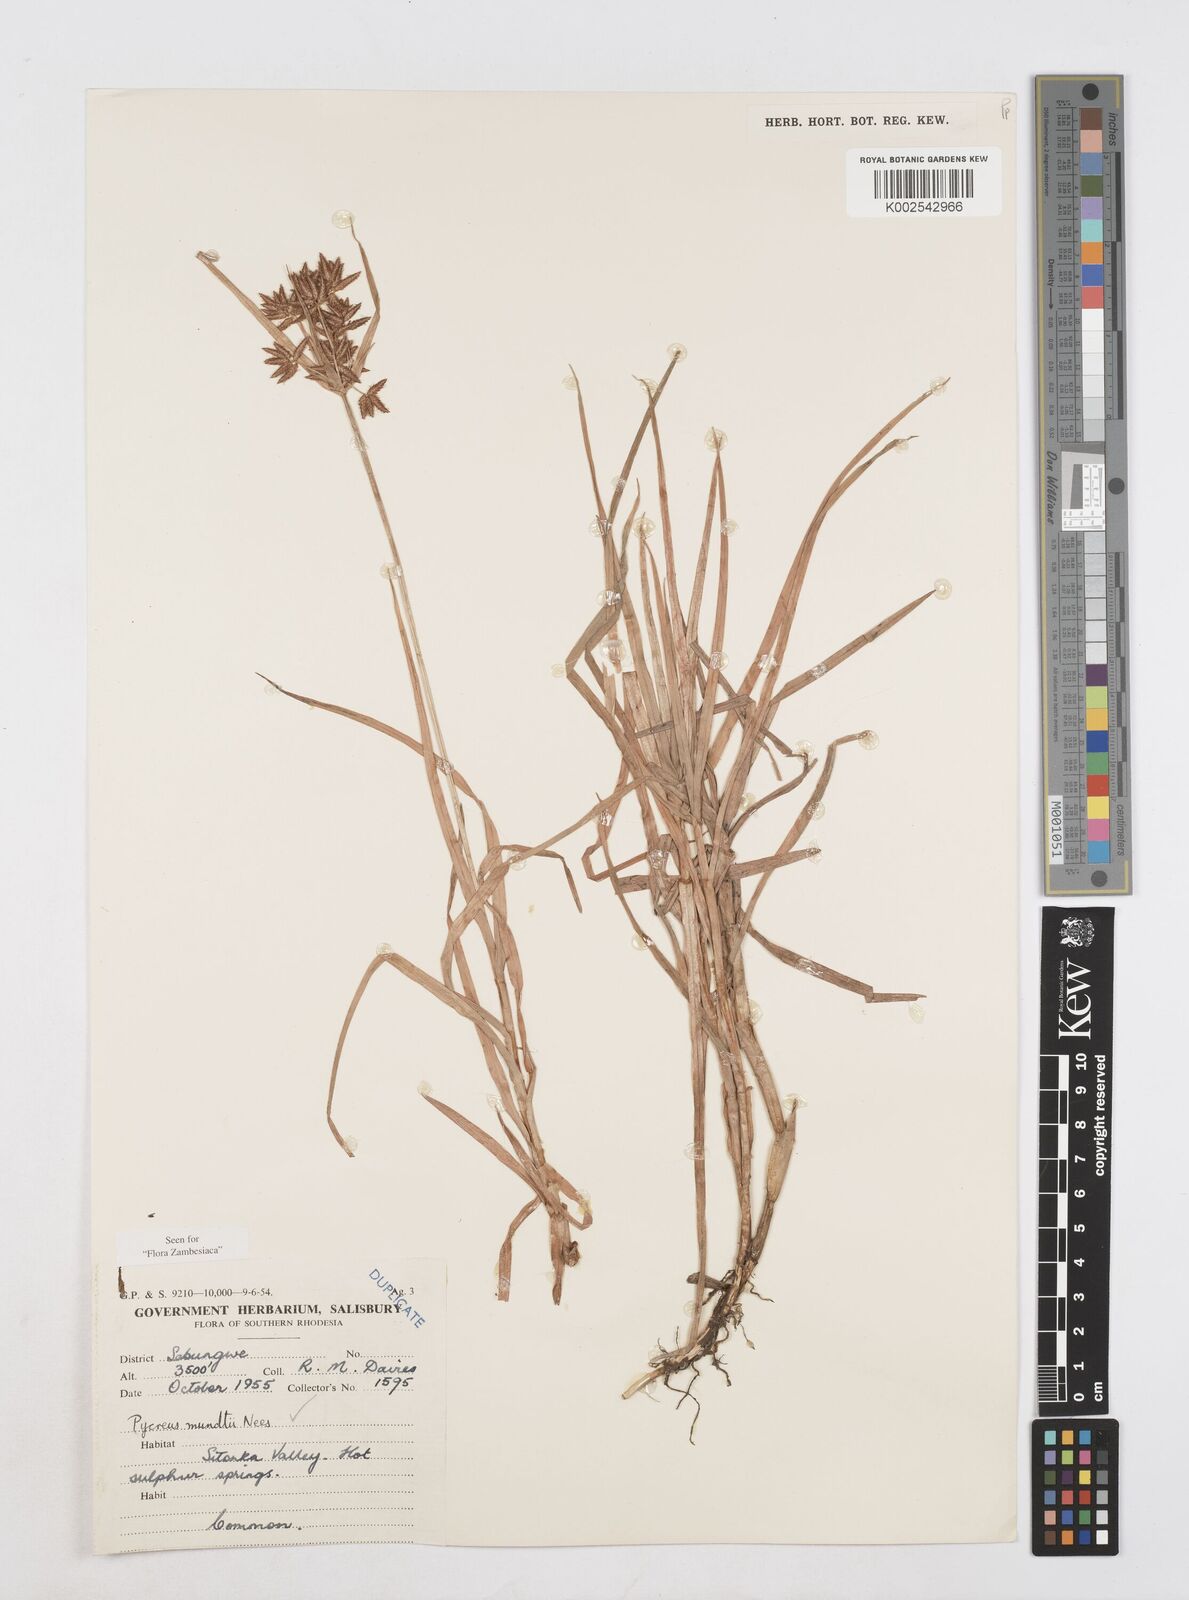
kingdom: Plantae
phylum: Tracheophyta
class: Liliopsida
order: Poales
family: Cyperaceae
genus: Cyperus
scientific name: Cyperus mundii
